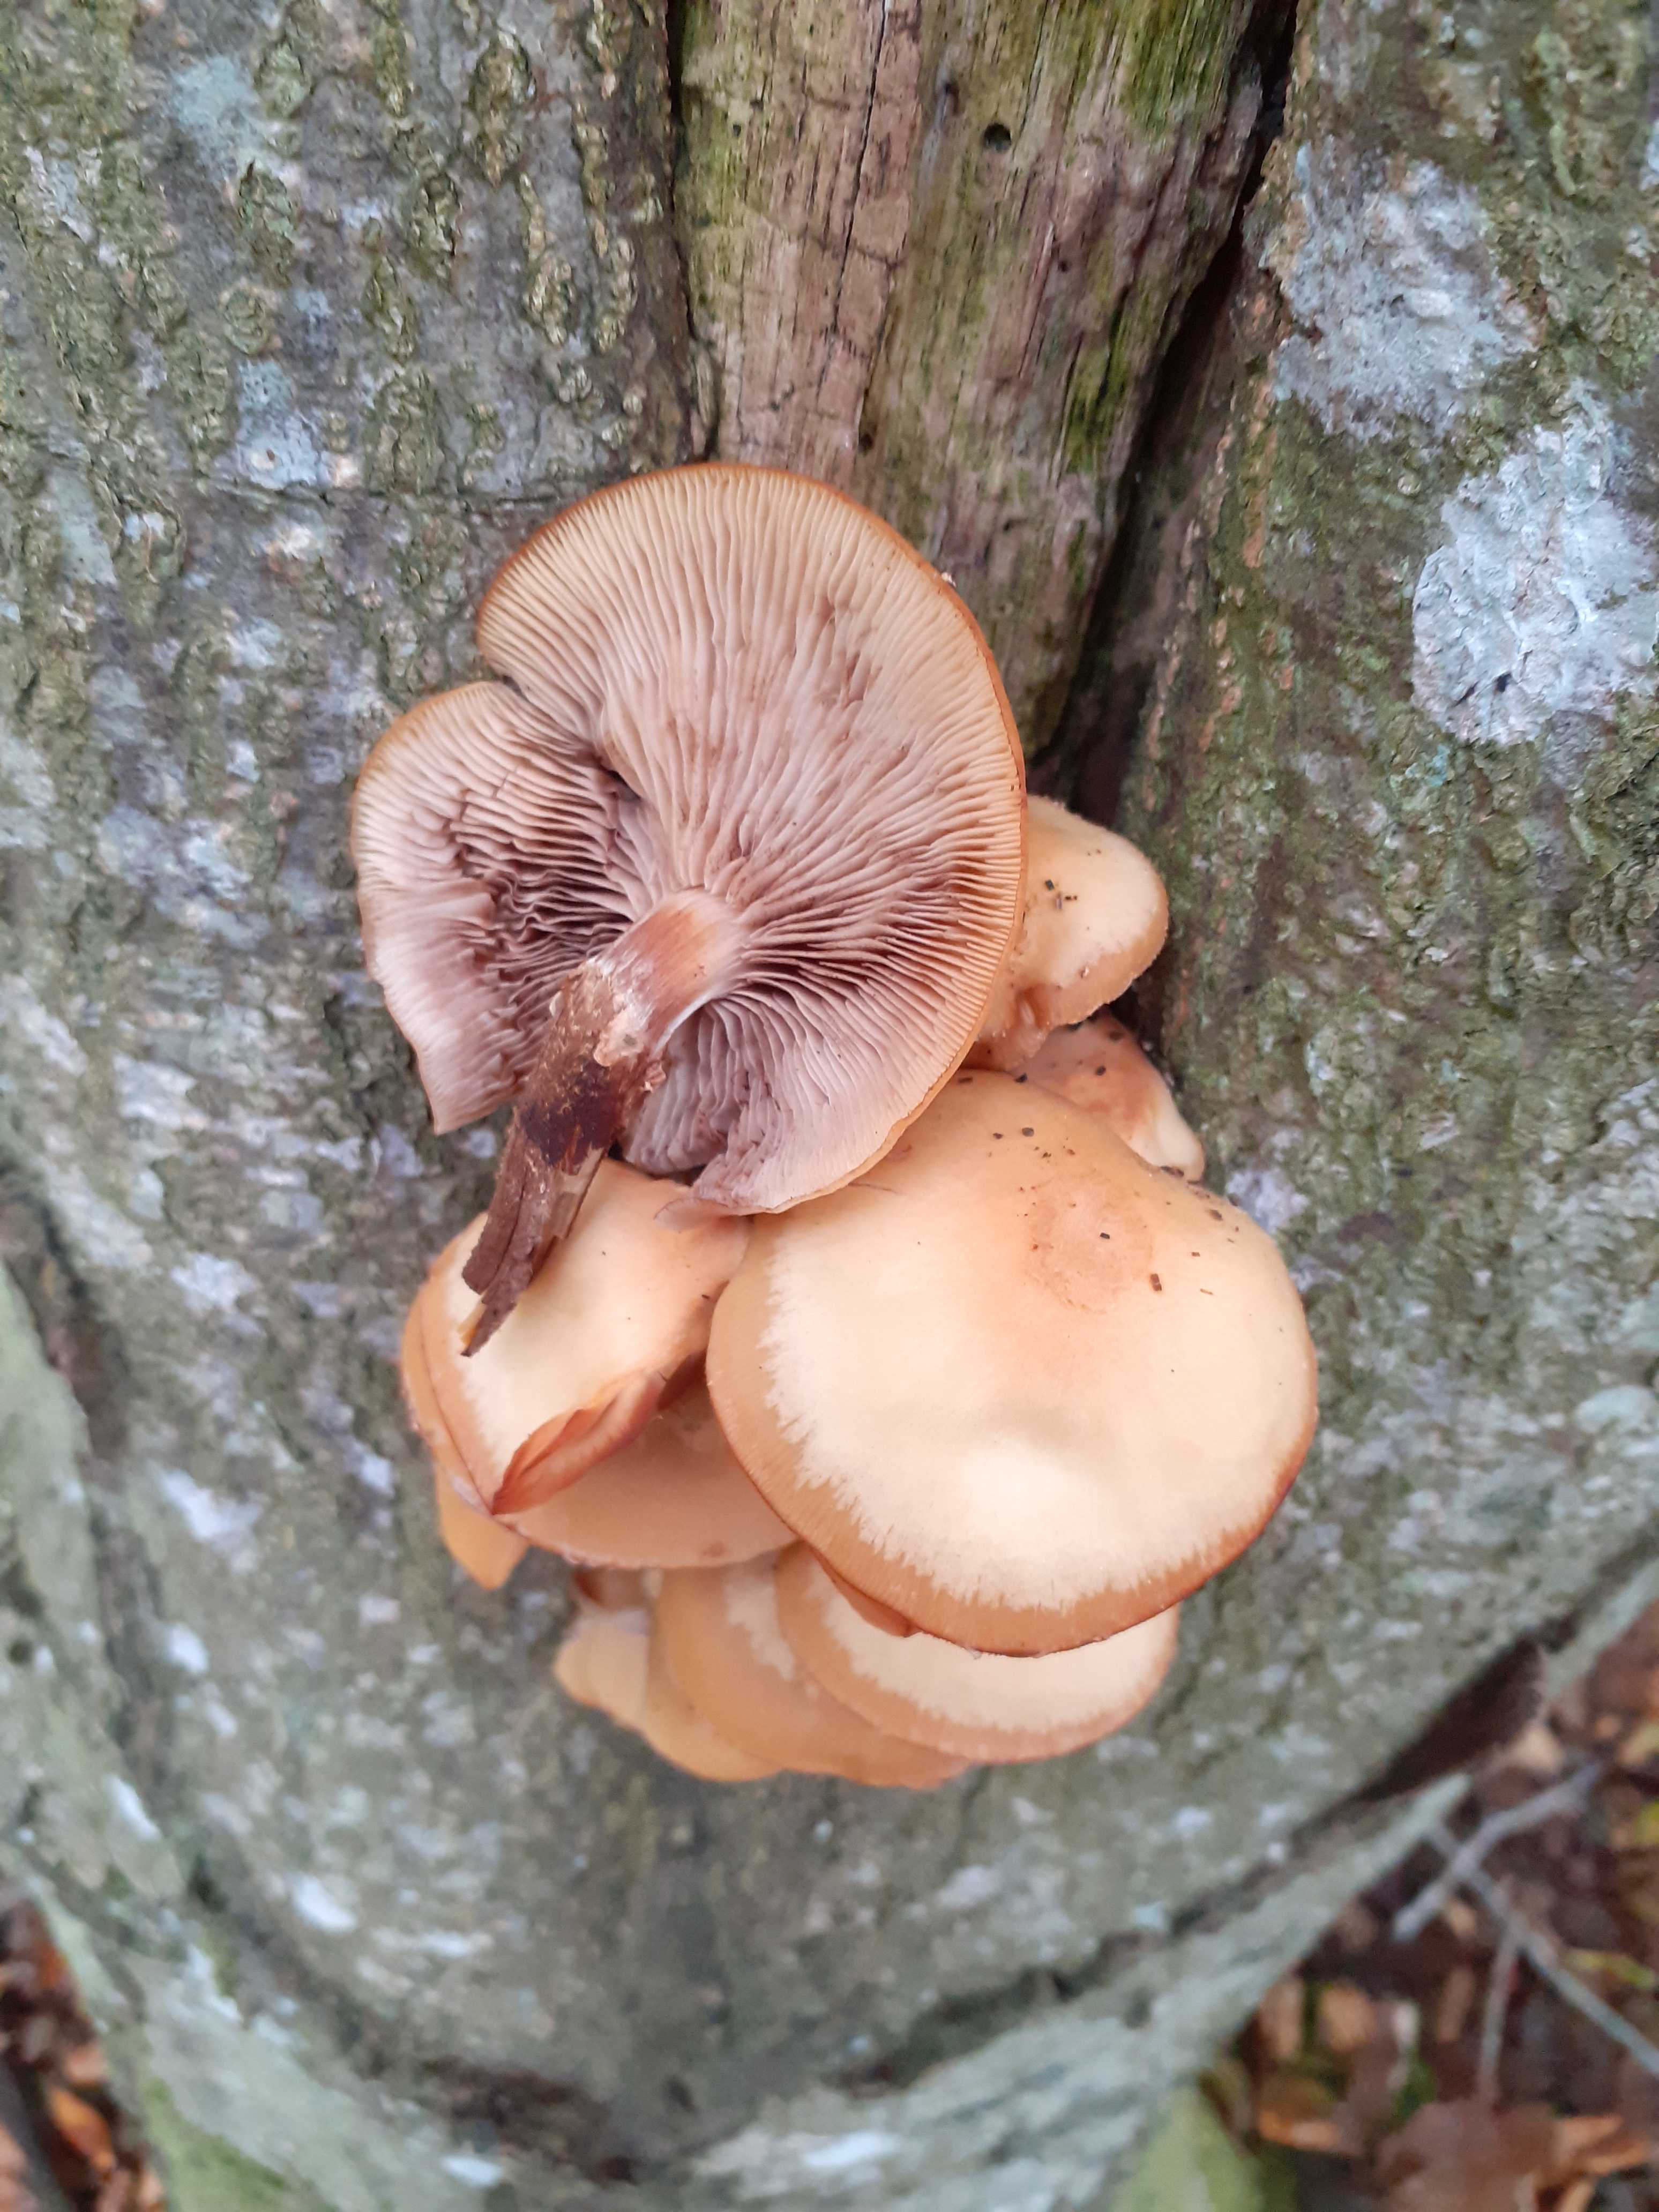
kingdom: Fungi
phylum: Basidiomycota
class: Agaricomycetes
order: Agaricales
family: Strophariaceae
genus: Kuehneromyces
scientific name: Kuehneromyces mutabilis
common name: foranderlig skælhat
